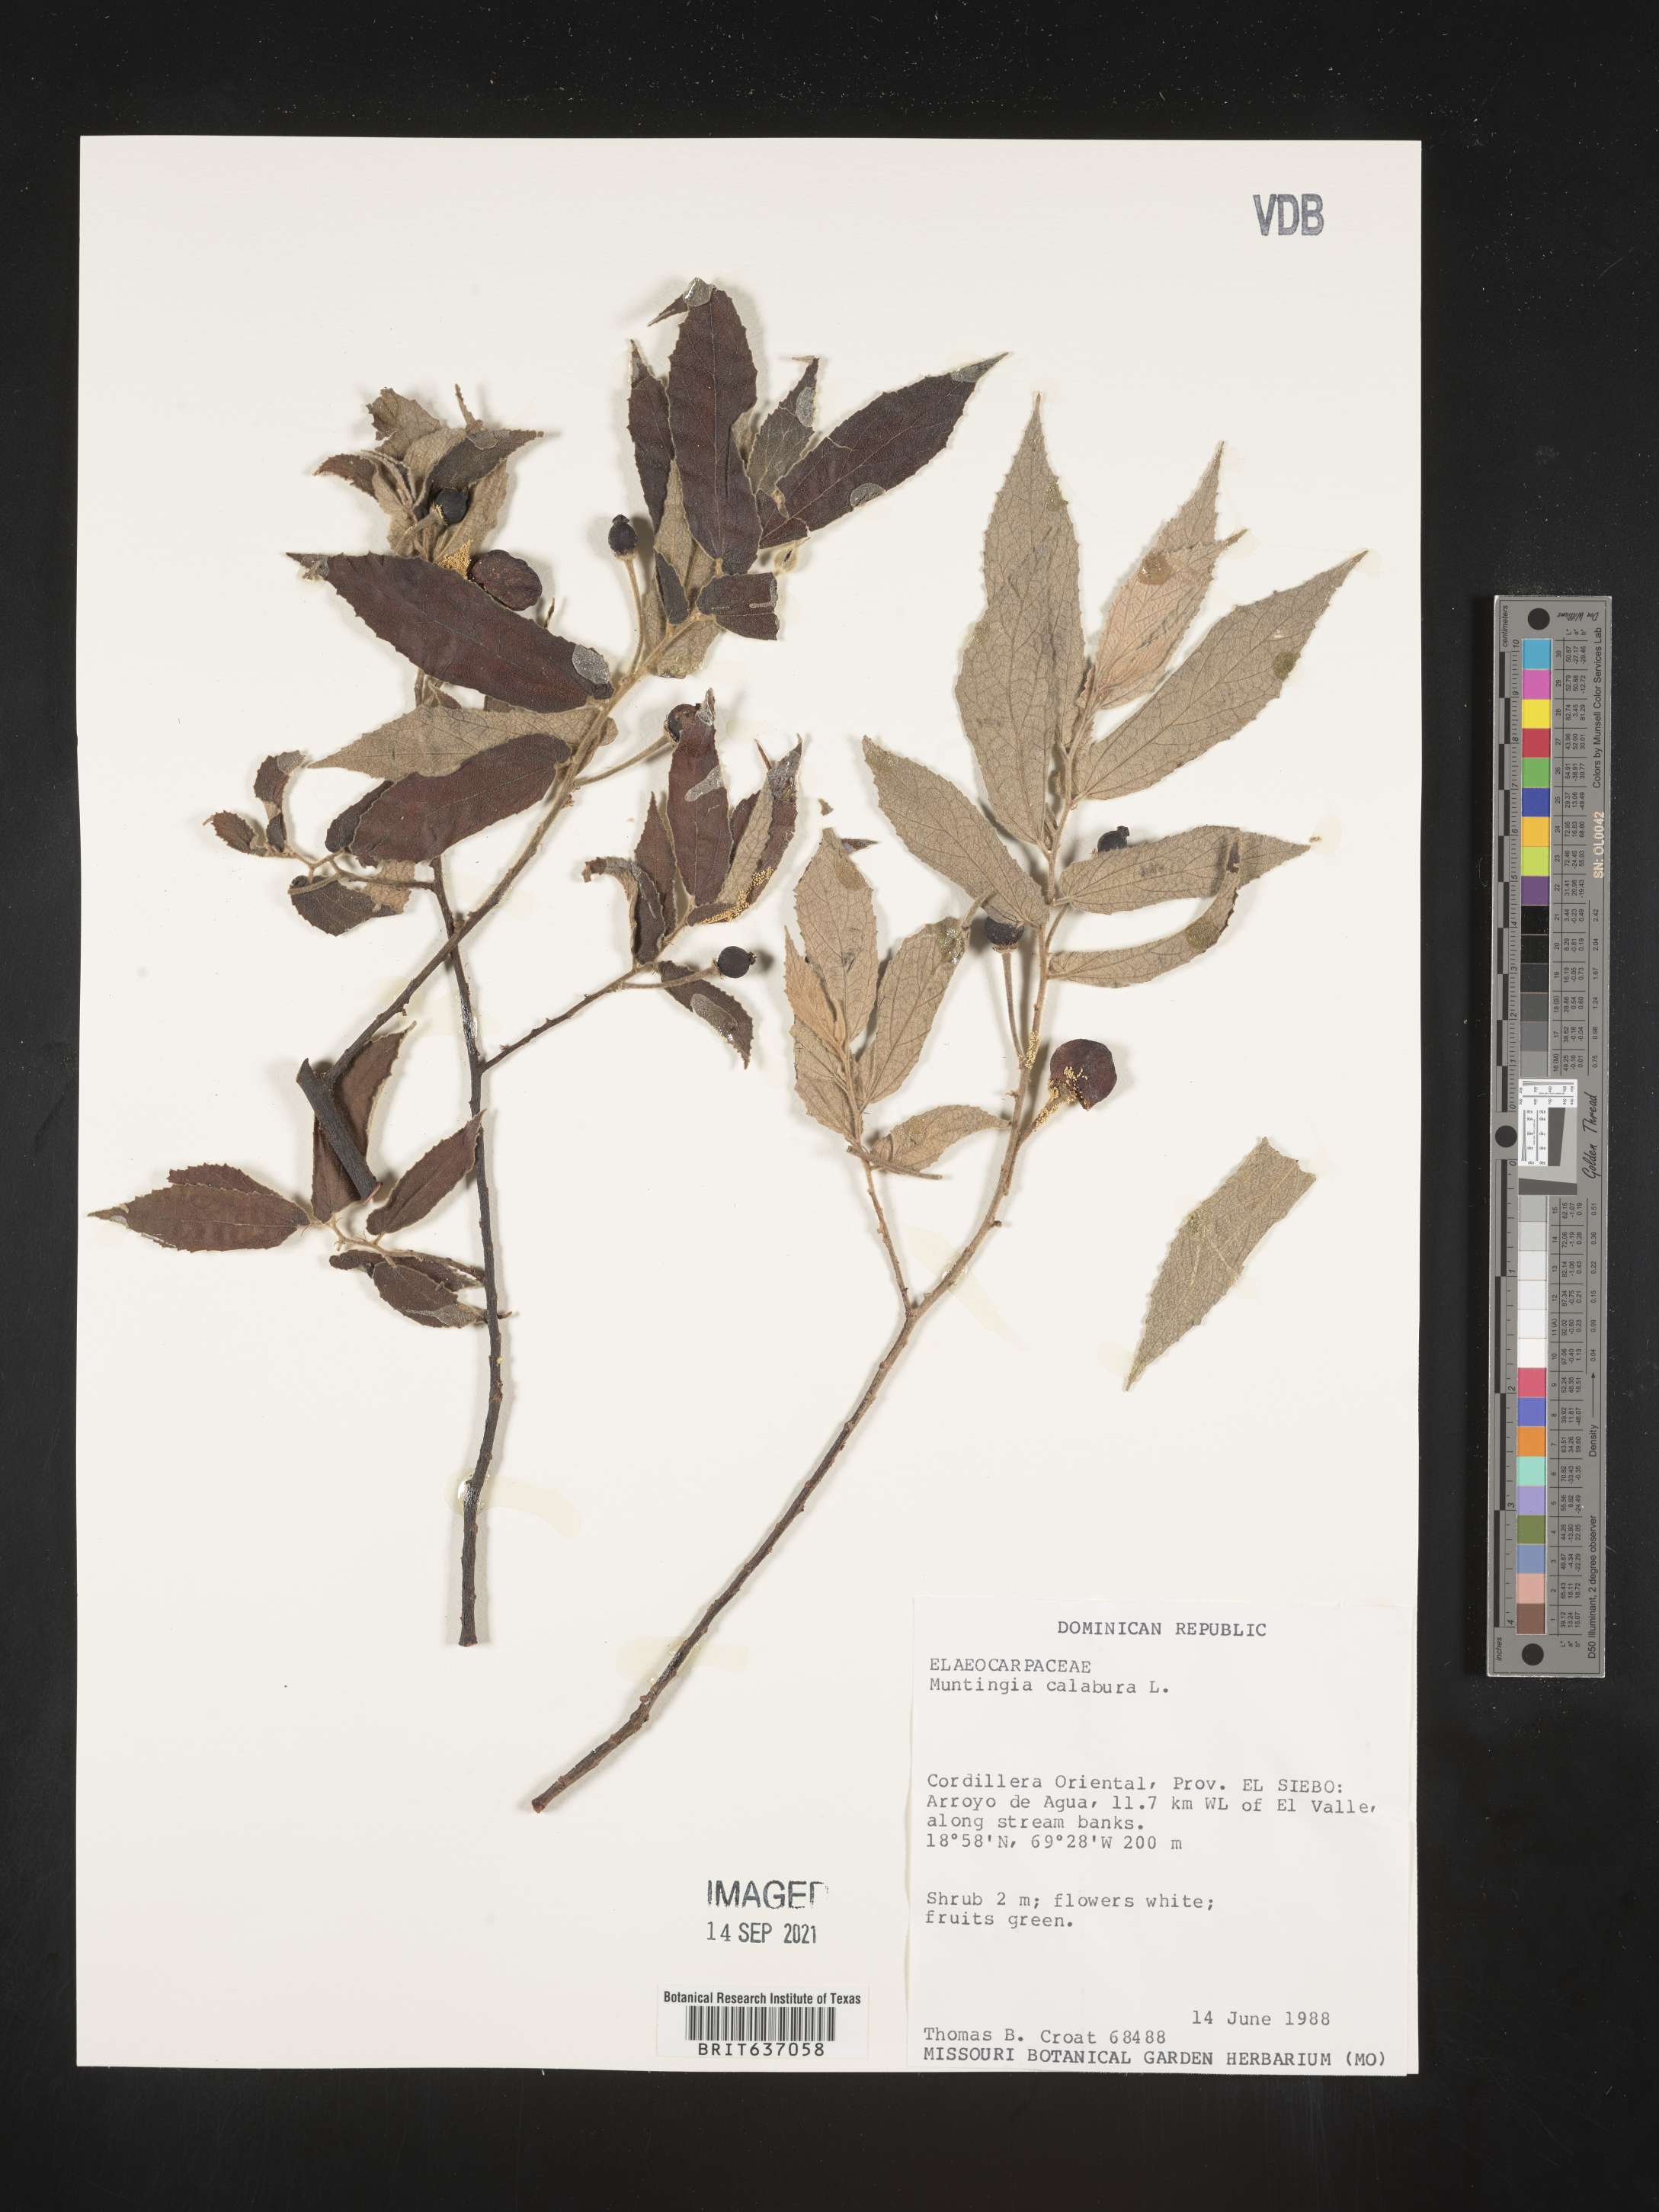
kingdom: Plantae
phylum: Tracheophyta
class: Magnoliopsida
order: Malvales
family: Muntingiaceae
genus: Muntingia
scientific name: Muntingia
